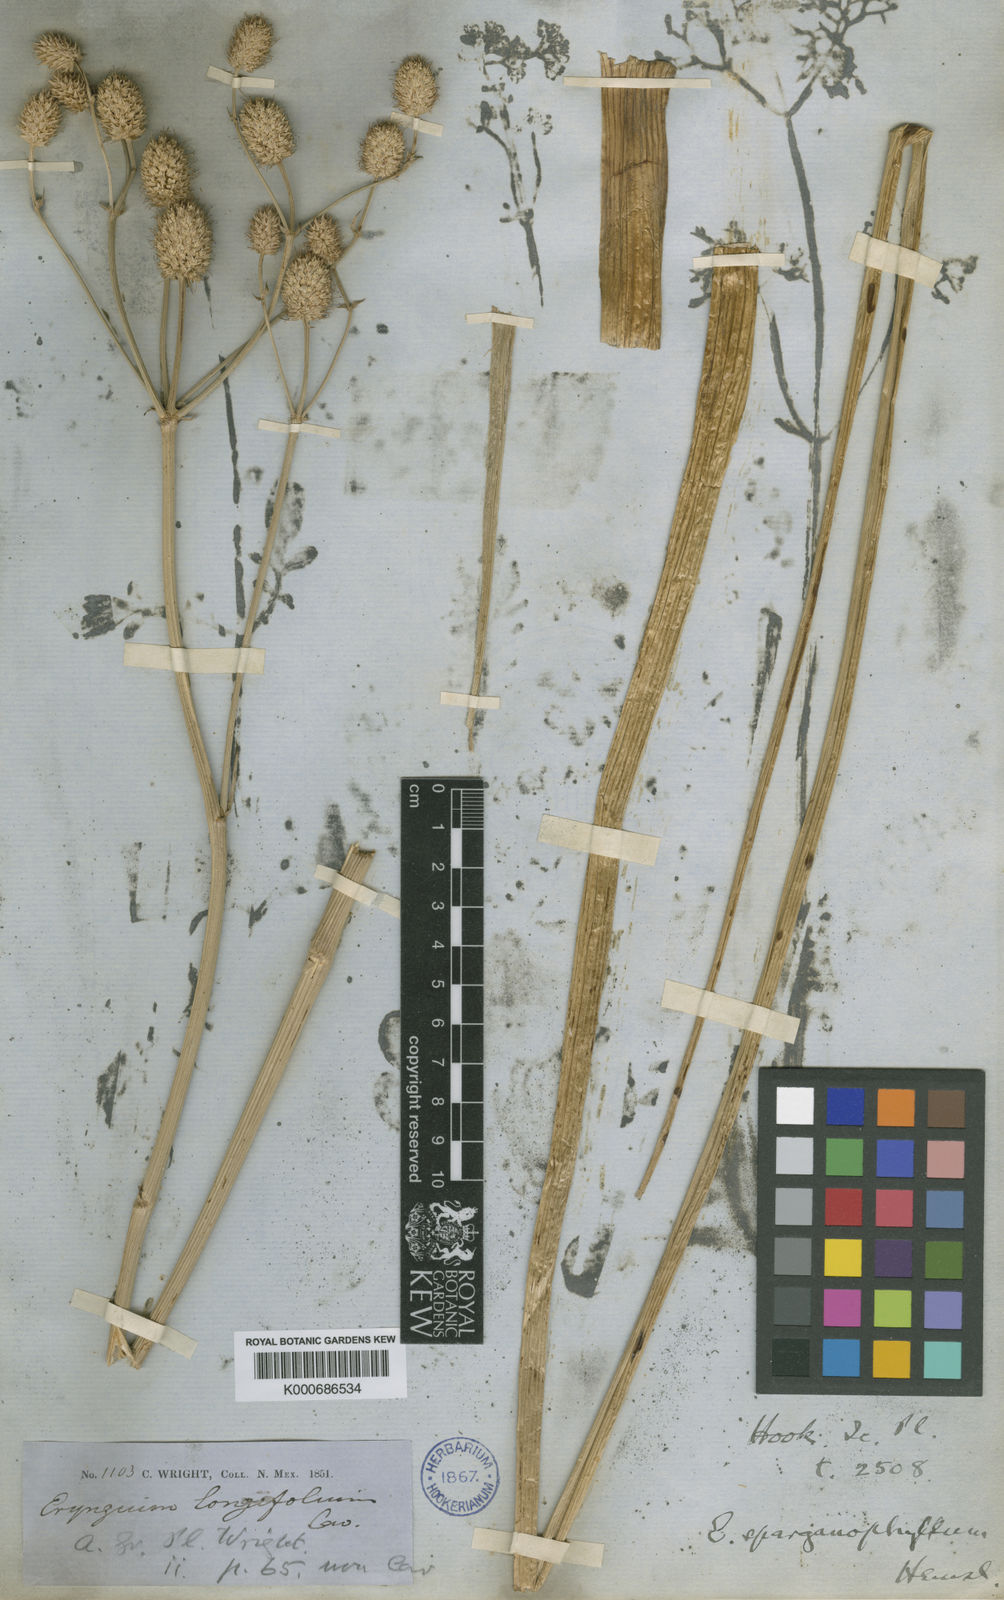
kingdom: Plantae
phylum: Tracheophyta
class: Magnoliopsida
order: Apiales
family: Apiaceae
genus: Eryngium
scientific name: Eryngium sparganophyllum
